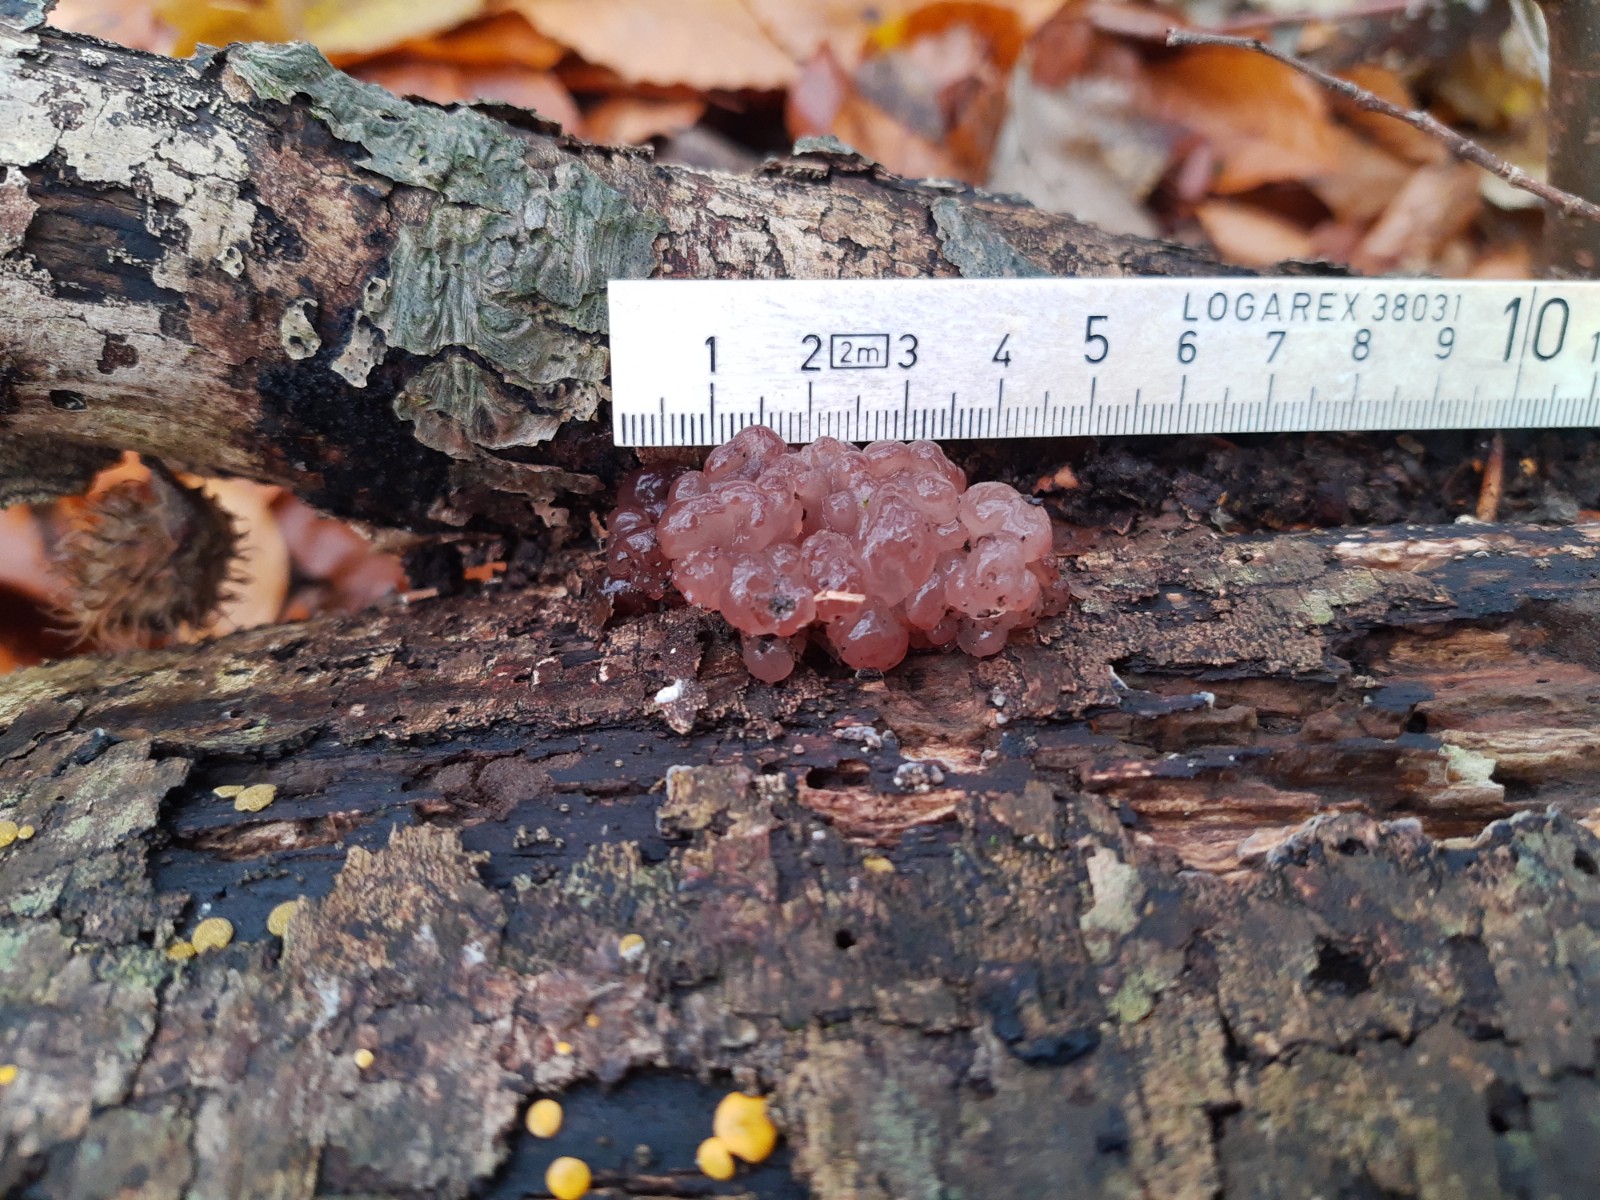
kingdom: Fungi
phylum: Ascomycota
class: Leotiomycetes
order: Helotiales
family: Gelatinodiscaceae
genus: Ascotremella
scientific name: Ascotremella faginea
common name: hjerne-bævreskive
